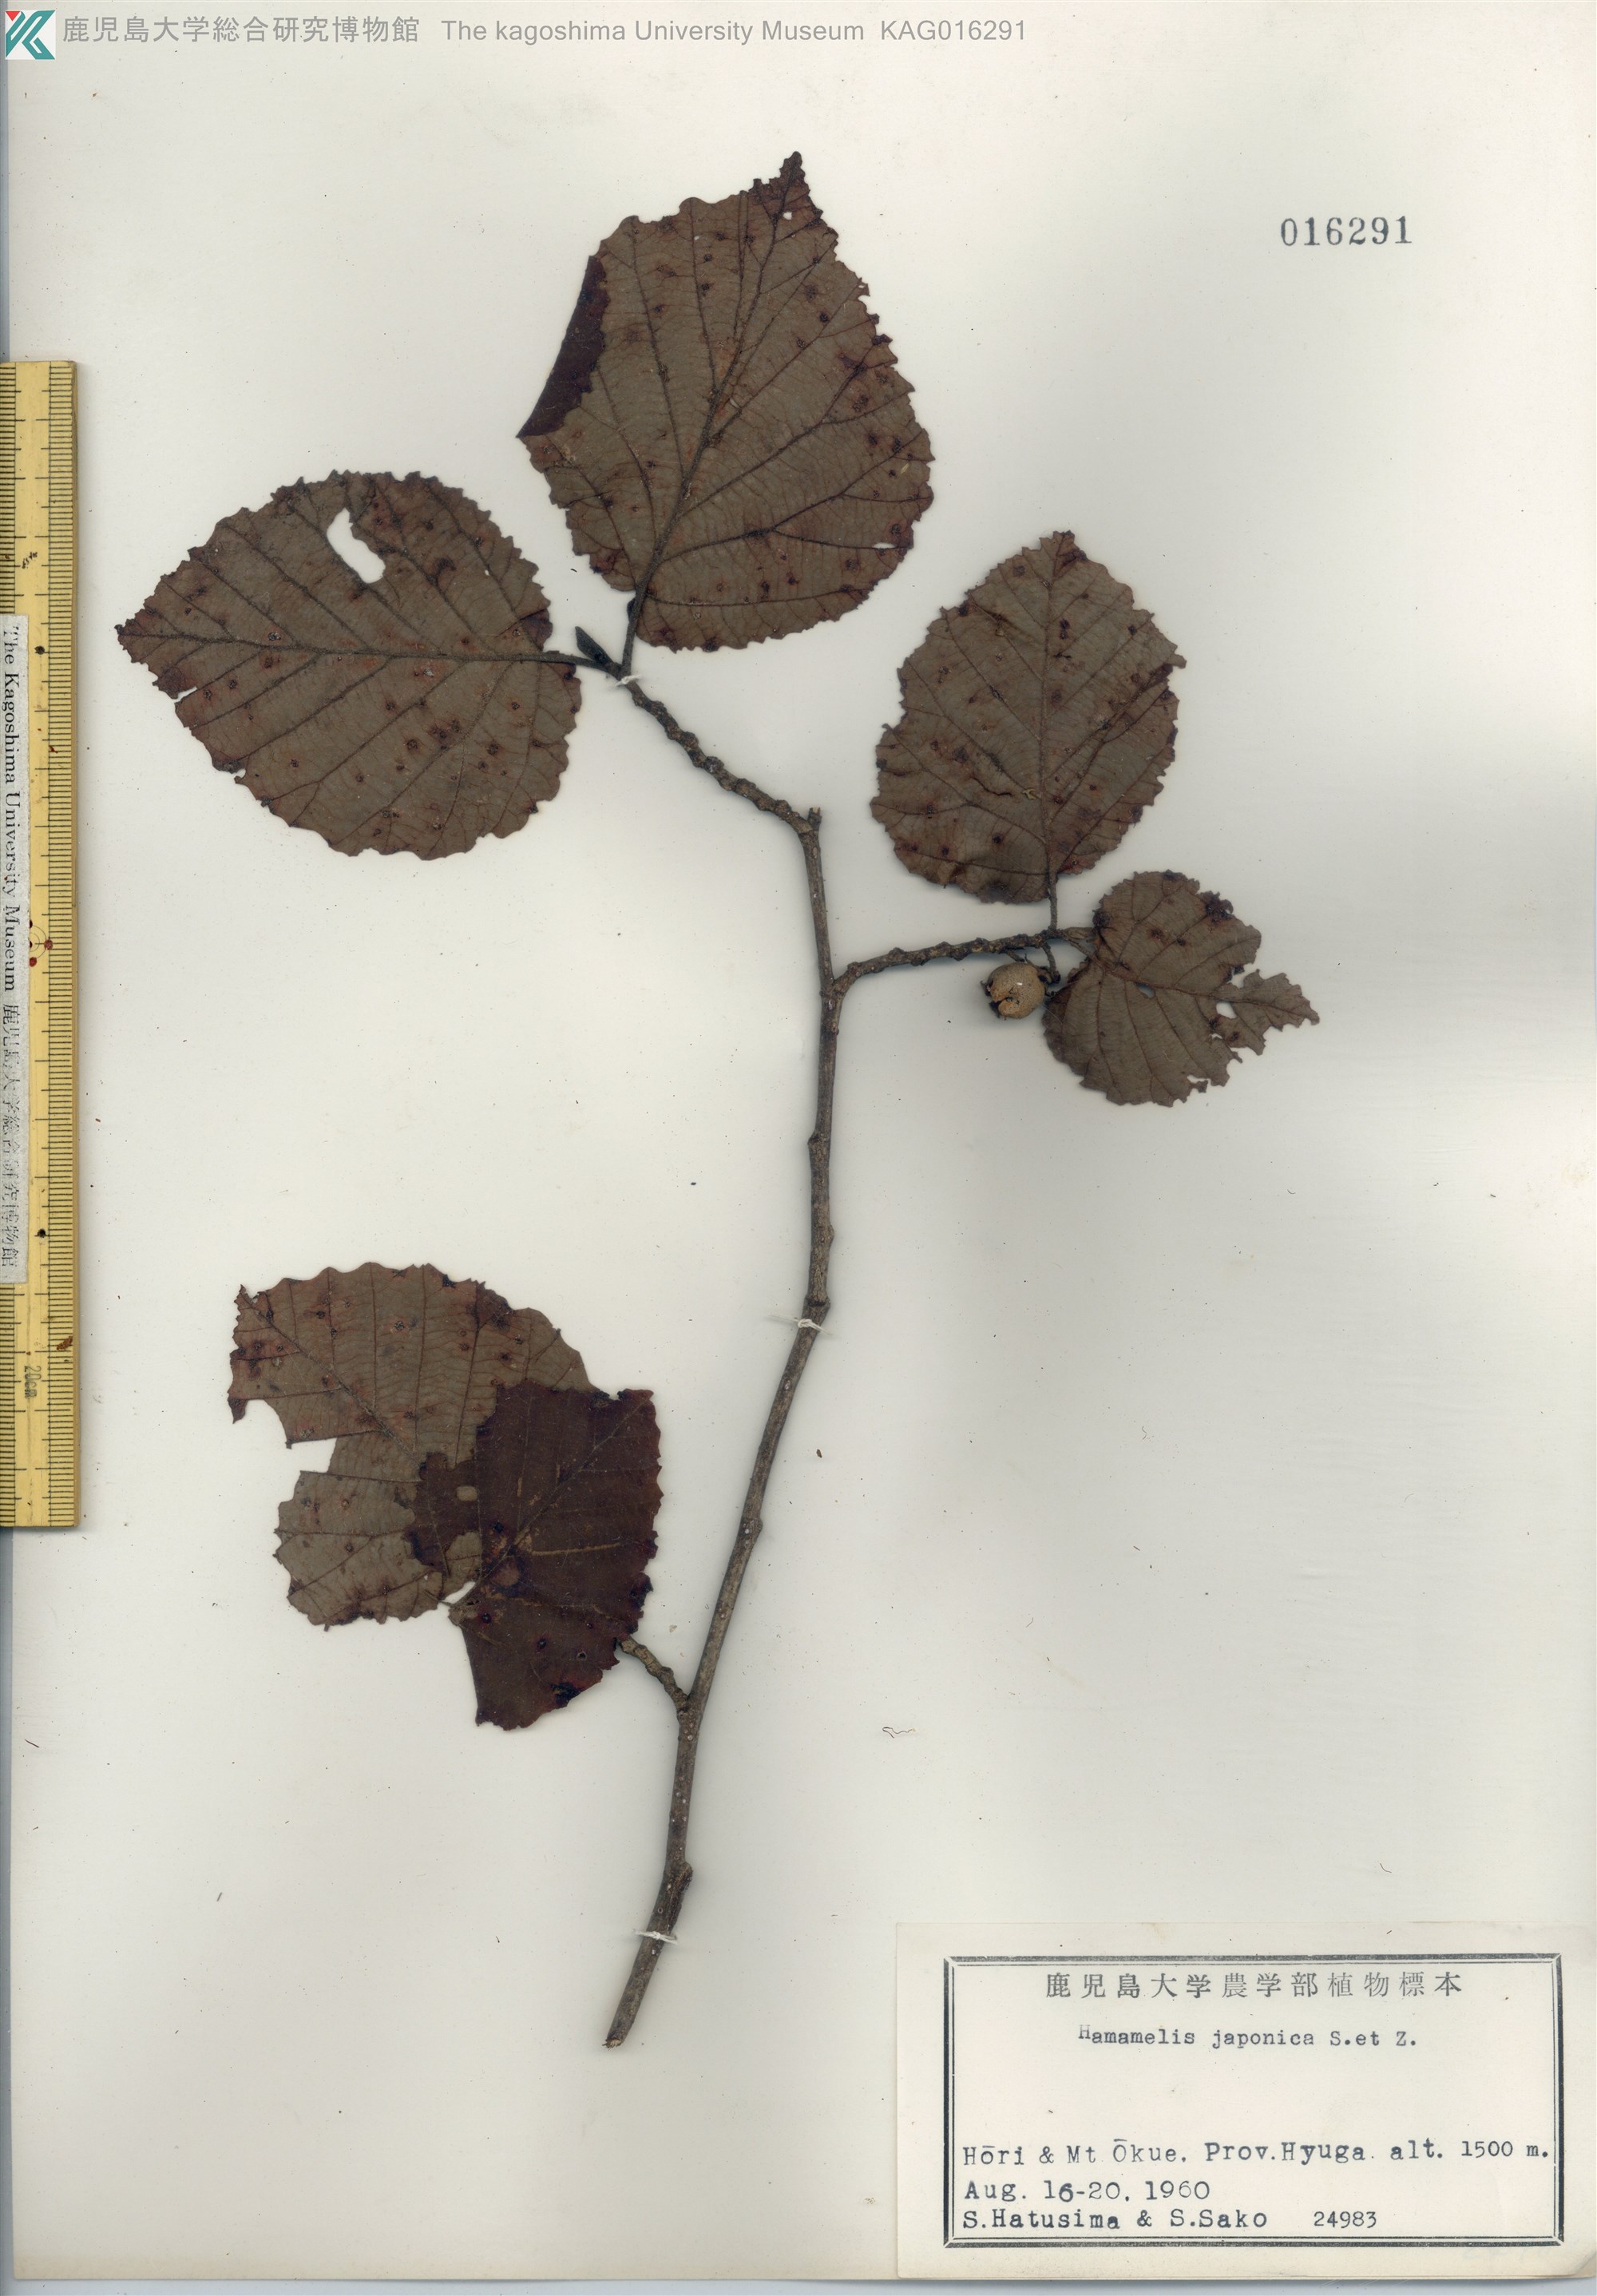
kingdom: Plantae
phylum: Tracheophyta
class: Magnoliopsida
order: Saxifragales
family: Hamamelidaceae
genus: Hamamelis
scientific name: Hamamelis japonica
